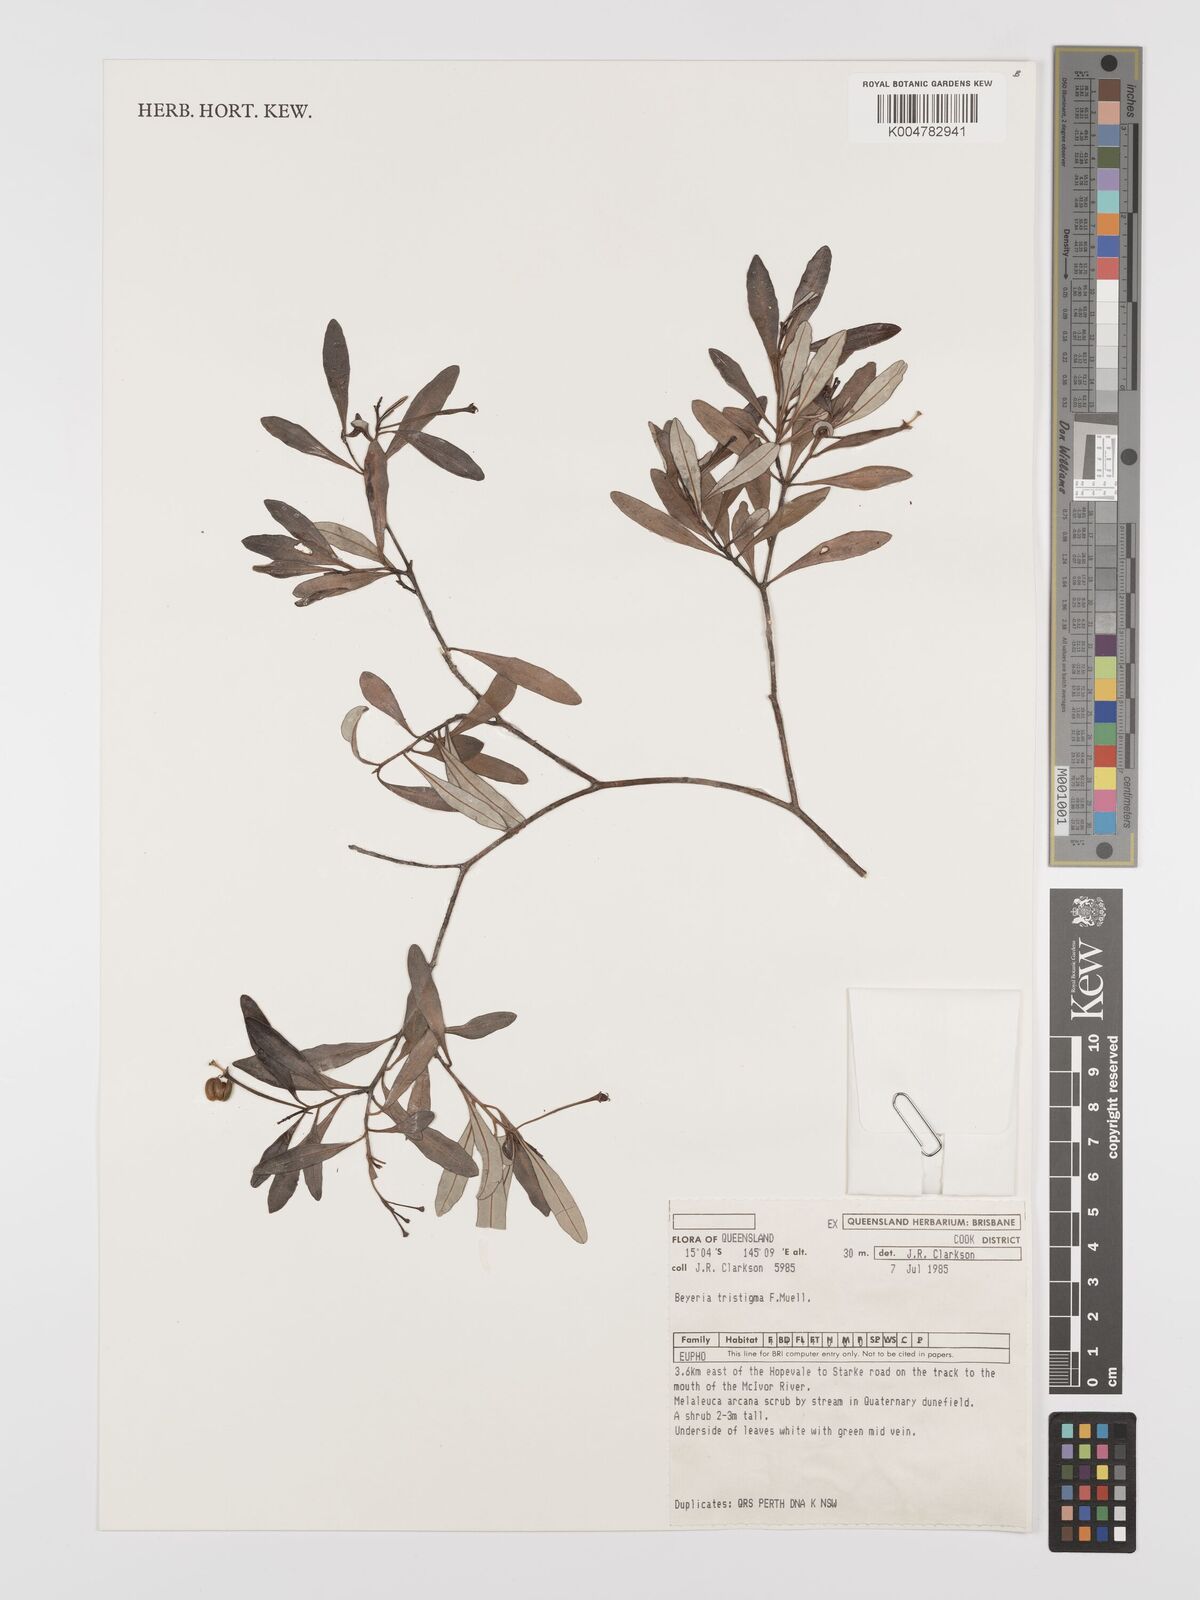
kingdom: Plantae
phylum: Tracheophyta
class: Magnoliopsida
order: Malpighiales
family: Euphorbiaceae
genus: Shonia
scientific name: Shonia tristigma
